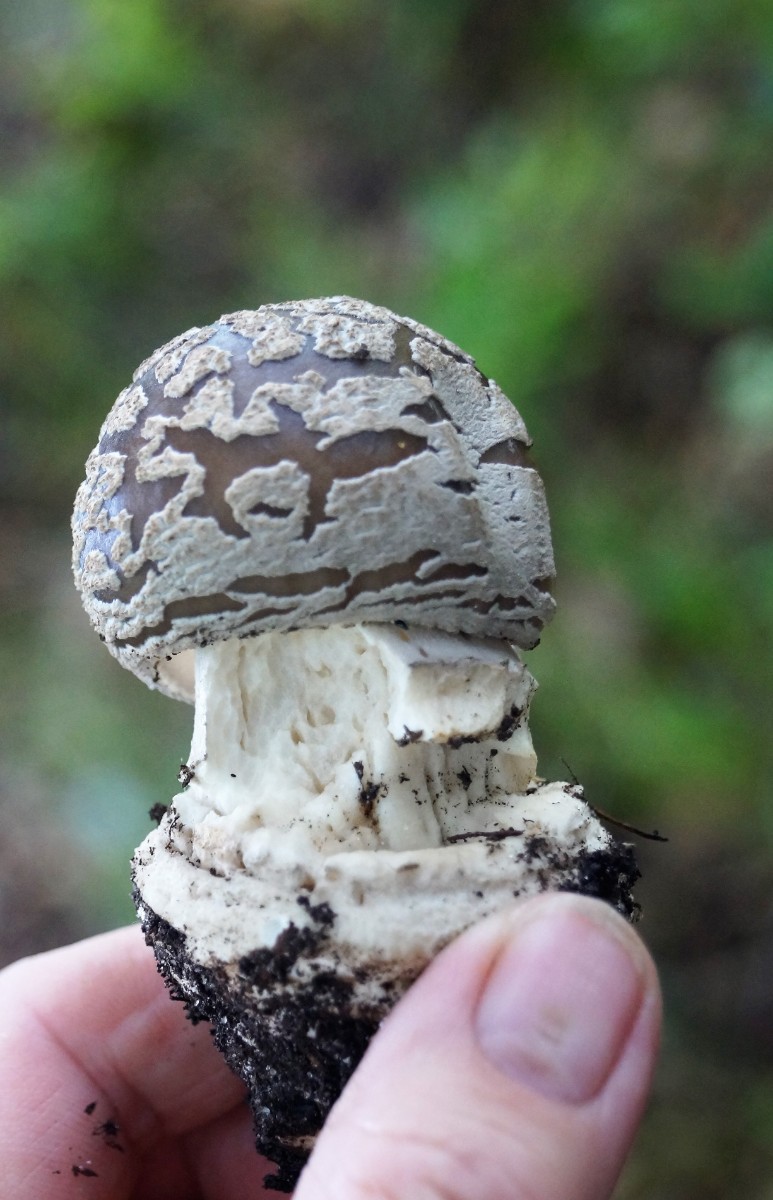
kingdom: Fungi
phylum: Basidiomycota
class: Agaricomycetes
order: Agaricales
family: Amanitaceae
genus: Amanita
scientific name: Amanita
